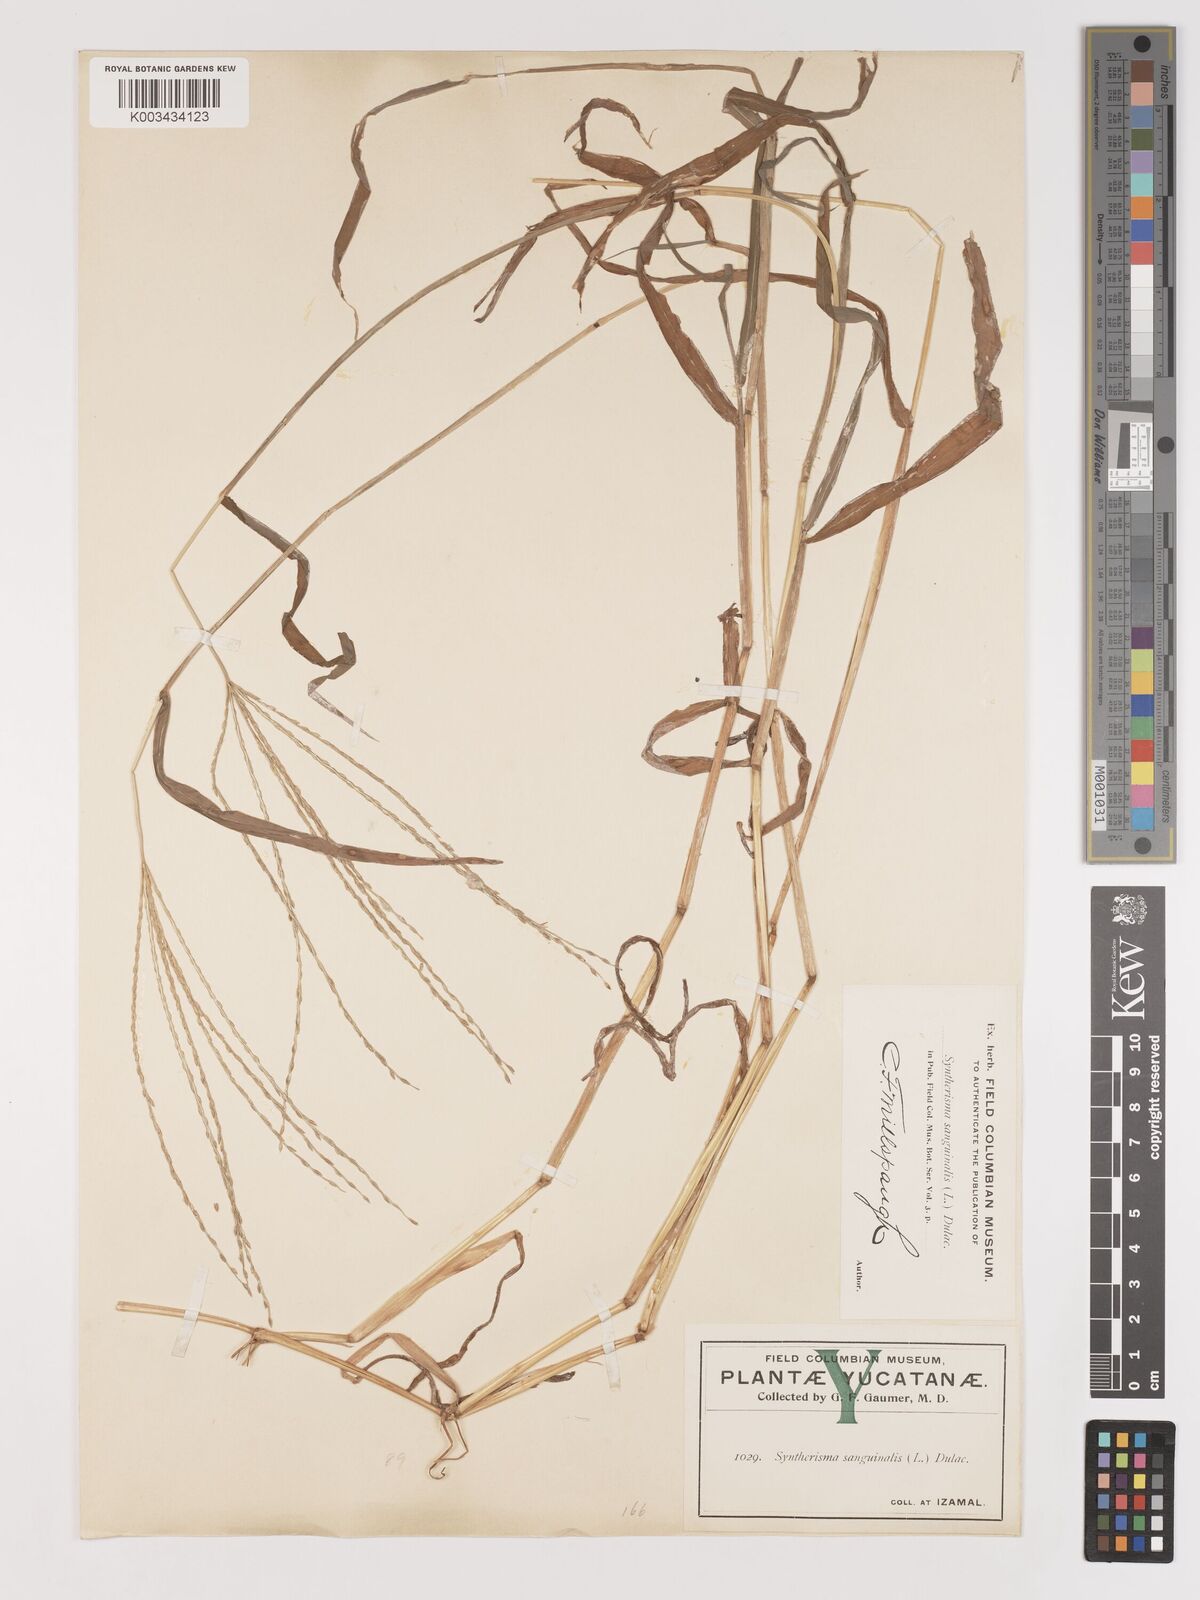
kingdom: Plantae
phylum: Tracheophyta
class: Liliopsida
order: Poales
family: Poaceae
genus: Digitaria
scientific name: Digitaria ciliaris
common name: Tropical finger-grass
